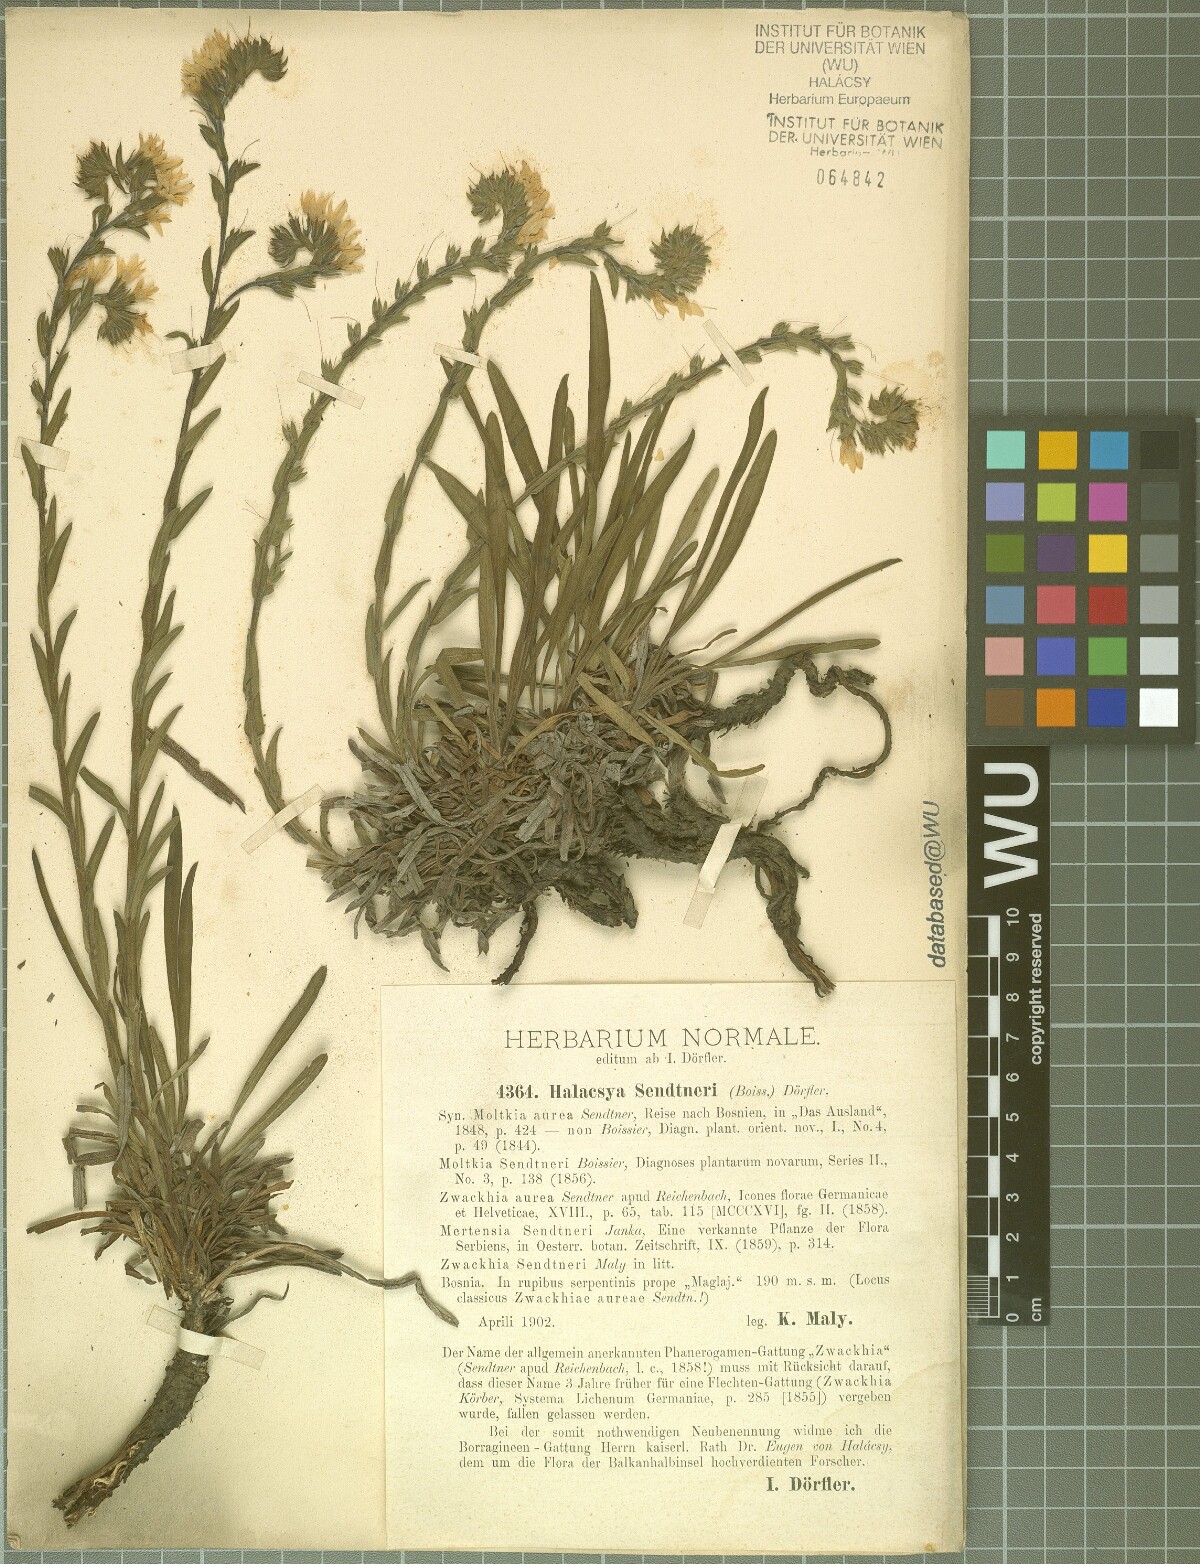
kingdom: Plantae
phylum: Tracheophyta
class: Magnoliopsida
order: Boraginales
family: Boraginaceae
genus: Halacsya
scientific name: Halacsya sendtneri
